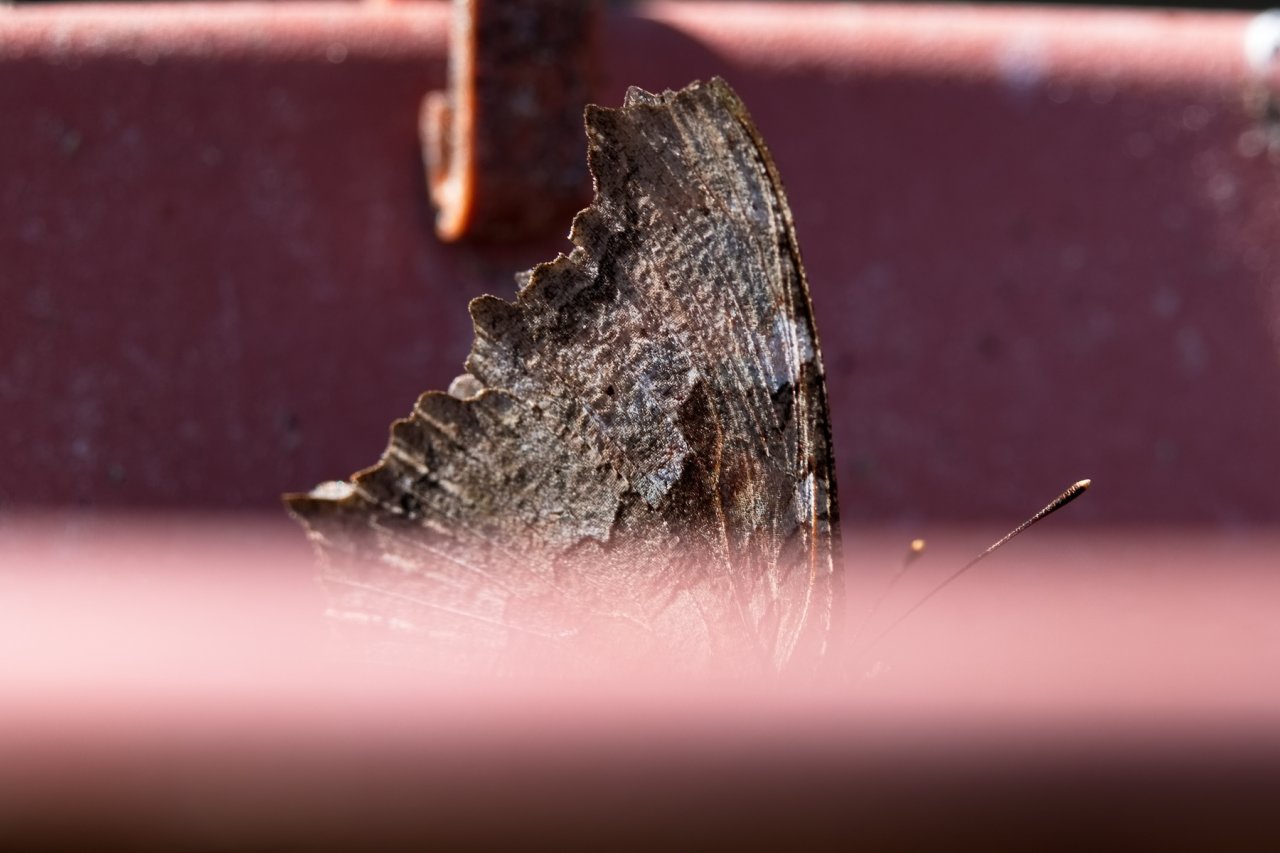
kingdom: Animalia
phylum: Arthropoda
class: Insecta
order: Lepidoptera
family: Nymphalidae
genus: Polygonia
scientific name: Polygonia vaualbum
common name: Compton Tortoiseshell
